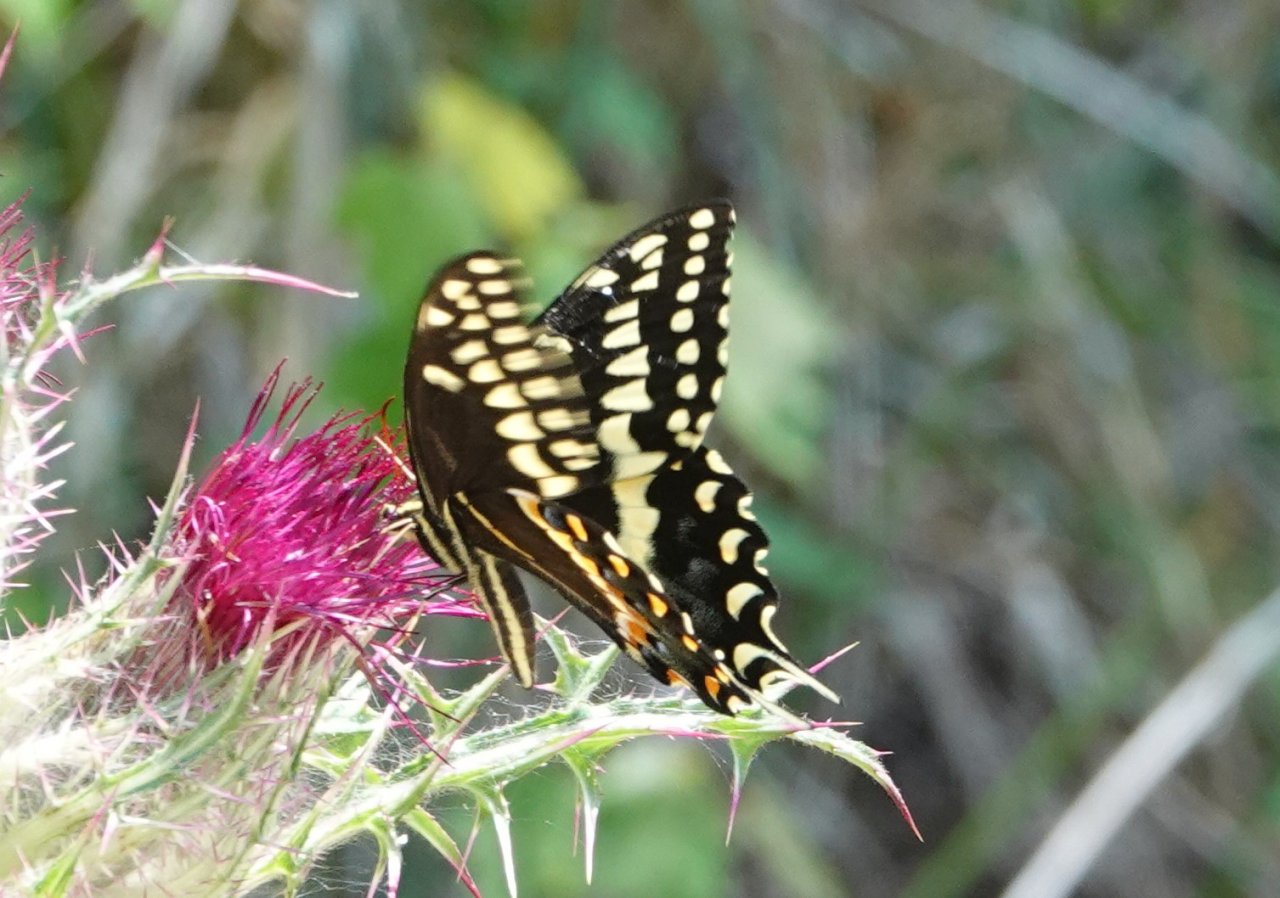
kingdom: Animalia
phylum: Arthropoda
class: Insecta
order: Lepidoptera
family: Papilionidae
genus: Pterourus
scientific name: Pterourus palamedes
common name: Palamedes Swallowtail
